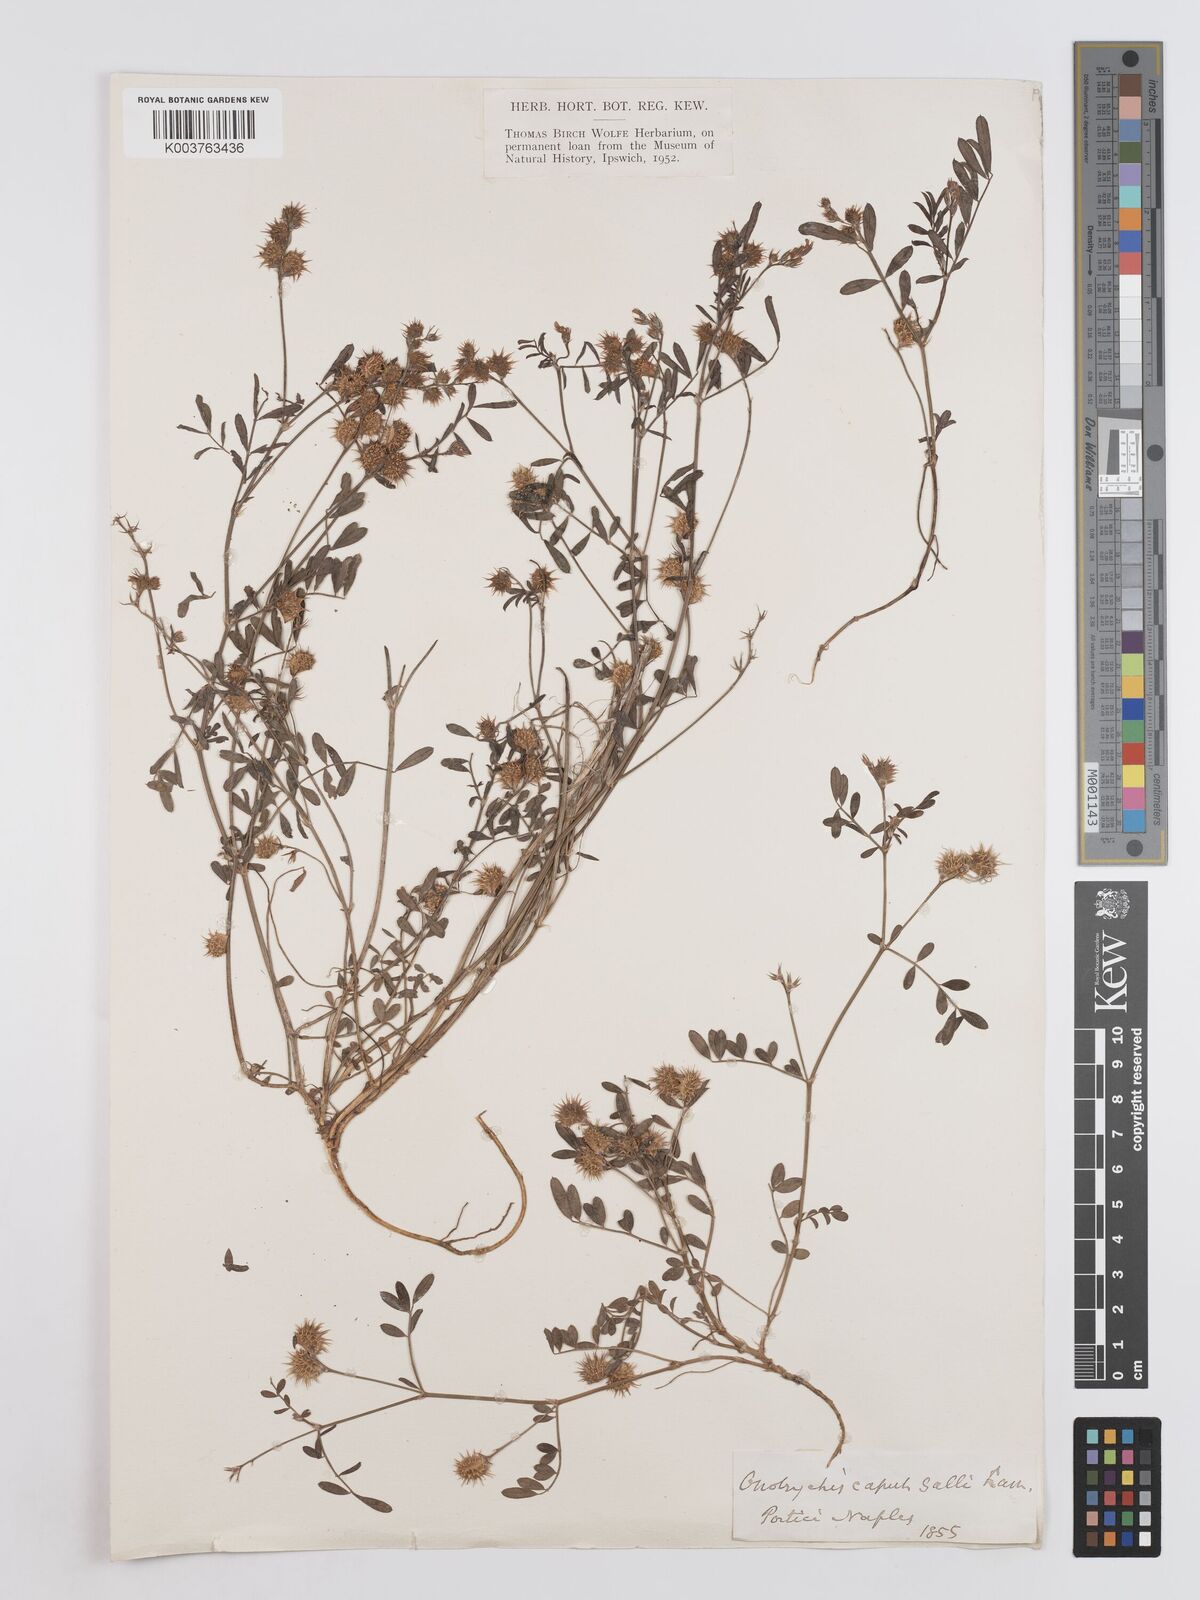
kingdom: Plantae
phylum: Tracheophyta
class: Magnoliopsida
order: Fabales
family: Fabaceae
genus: Onobrychis
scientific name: Onobrychis caput-galli
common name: Cockscomb sainfoin
